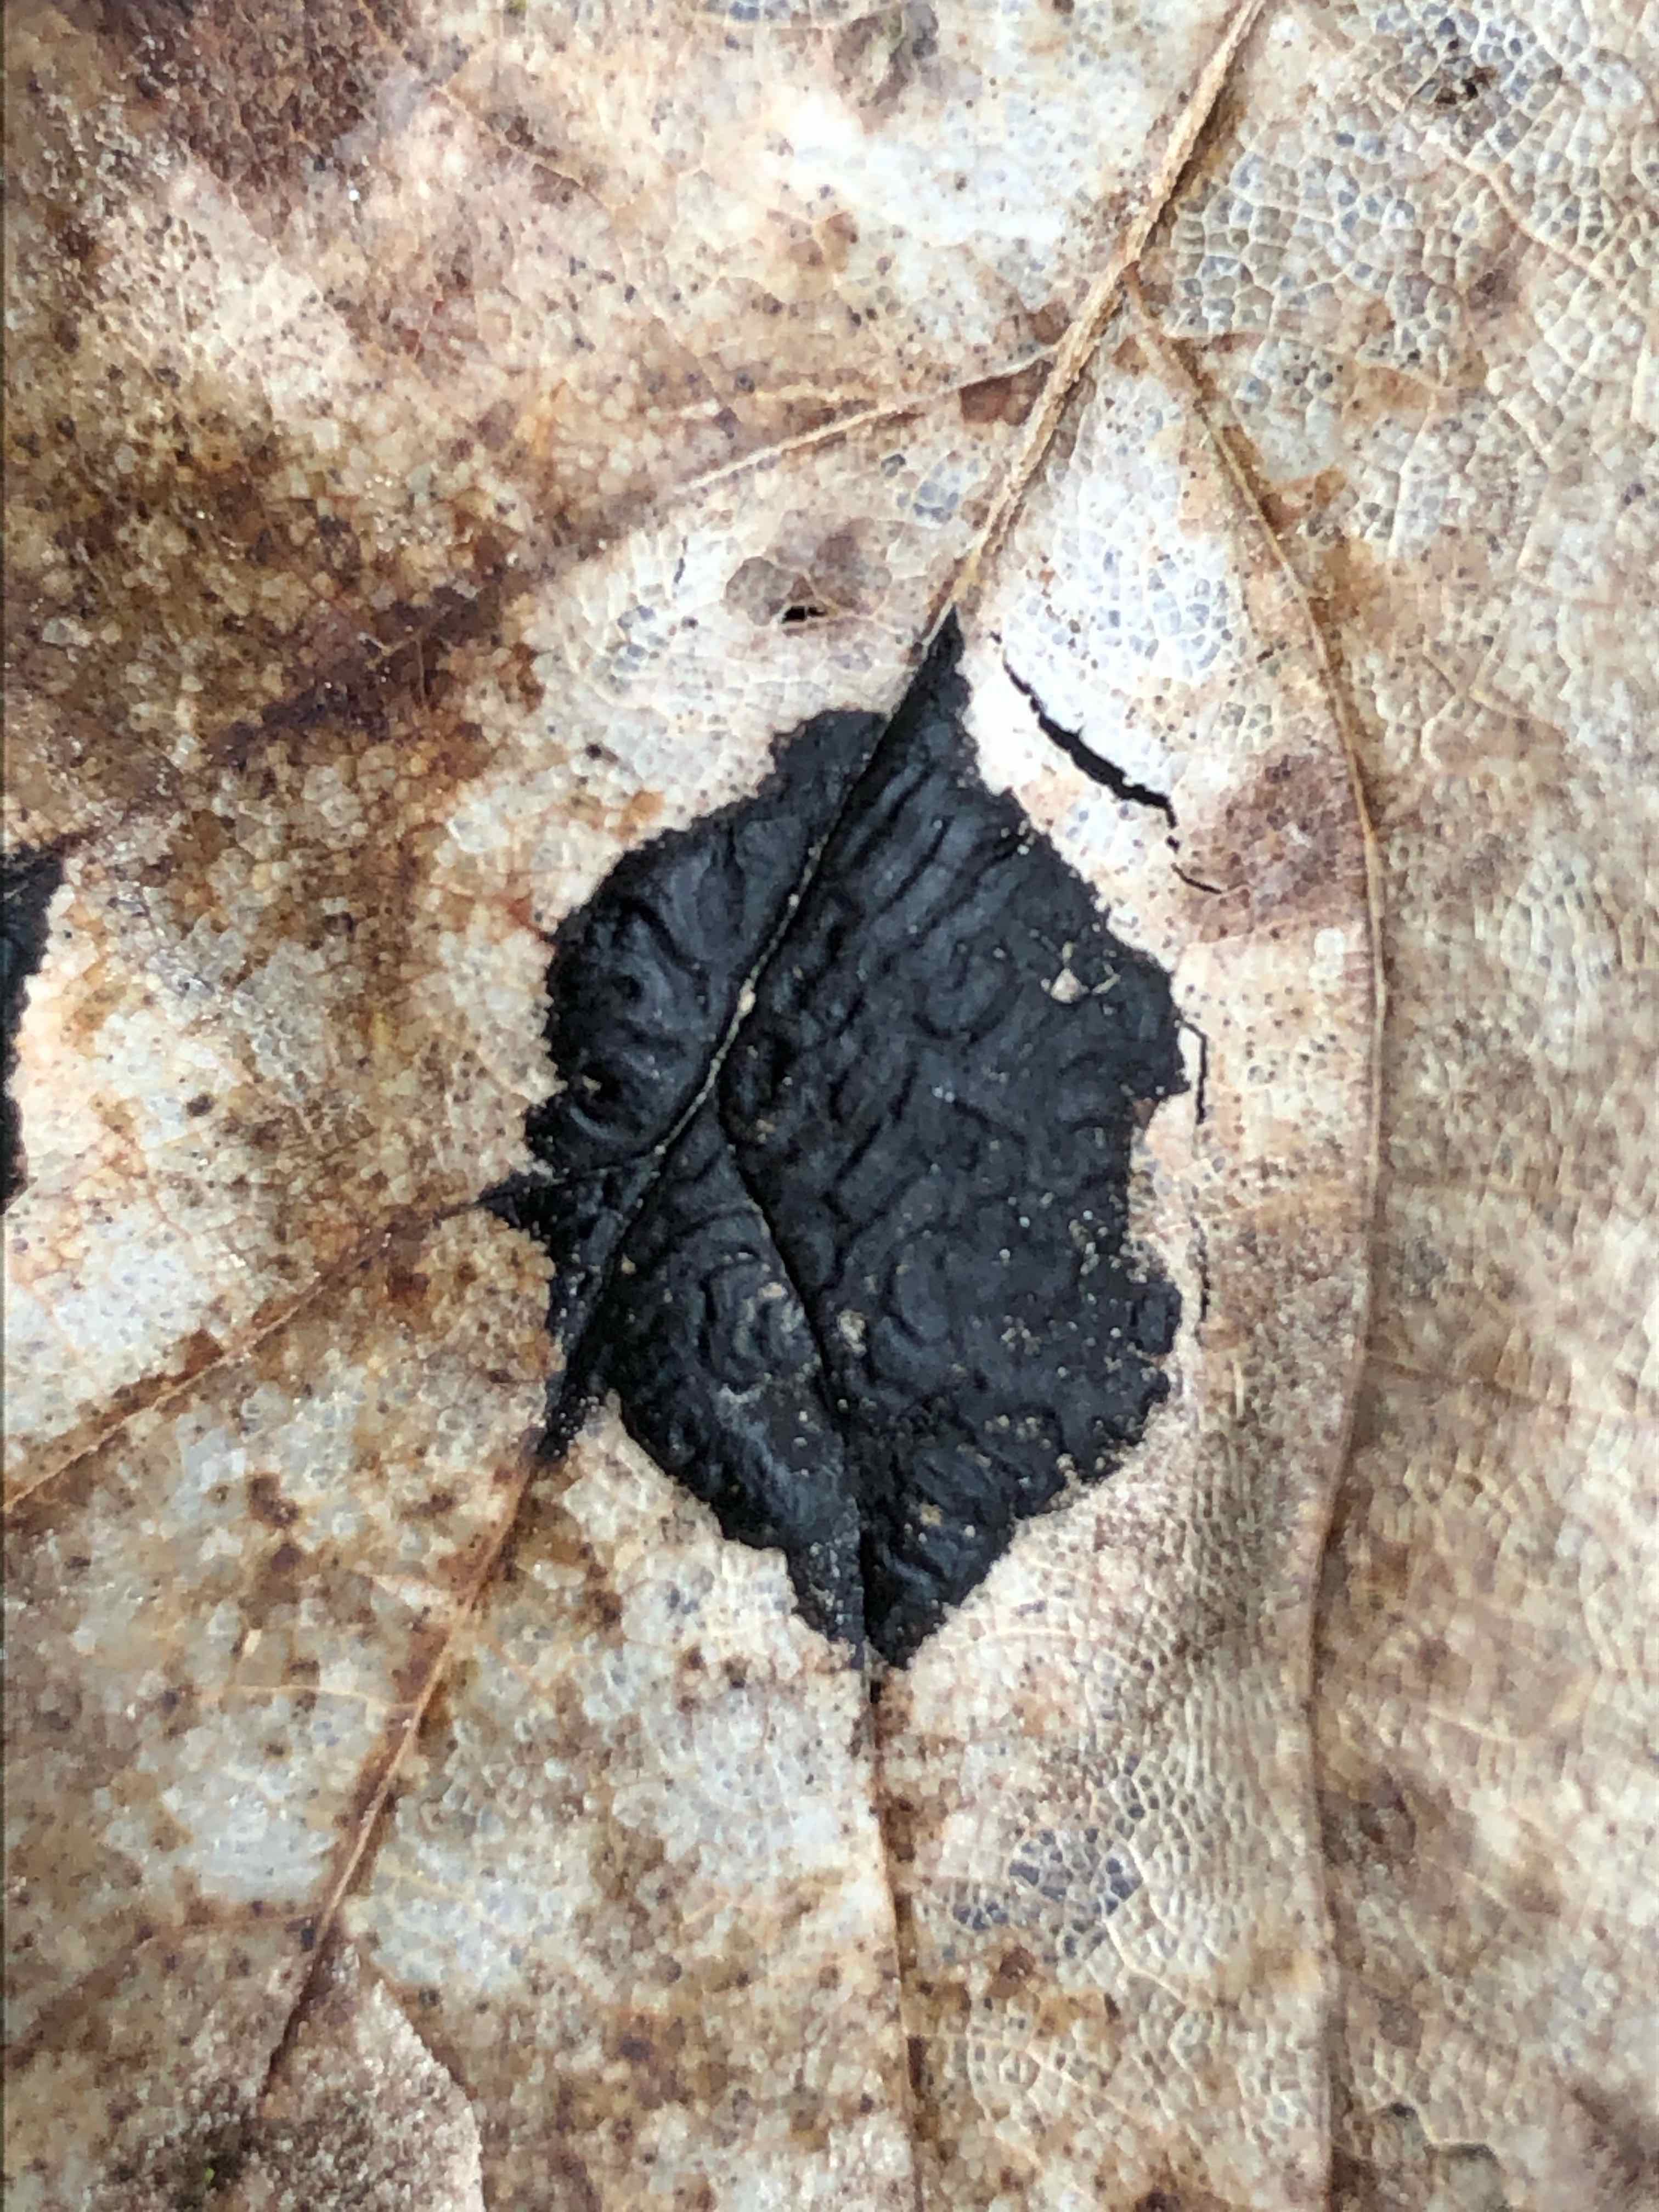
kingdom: Fungi
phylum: Ascomycota
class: Leotiomycetes
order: Rhytismatales
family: Rhytismataceae
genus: Rhytisma
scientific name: Rhytisma acerinum
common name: ahorn-rynkeplet
